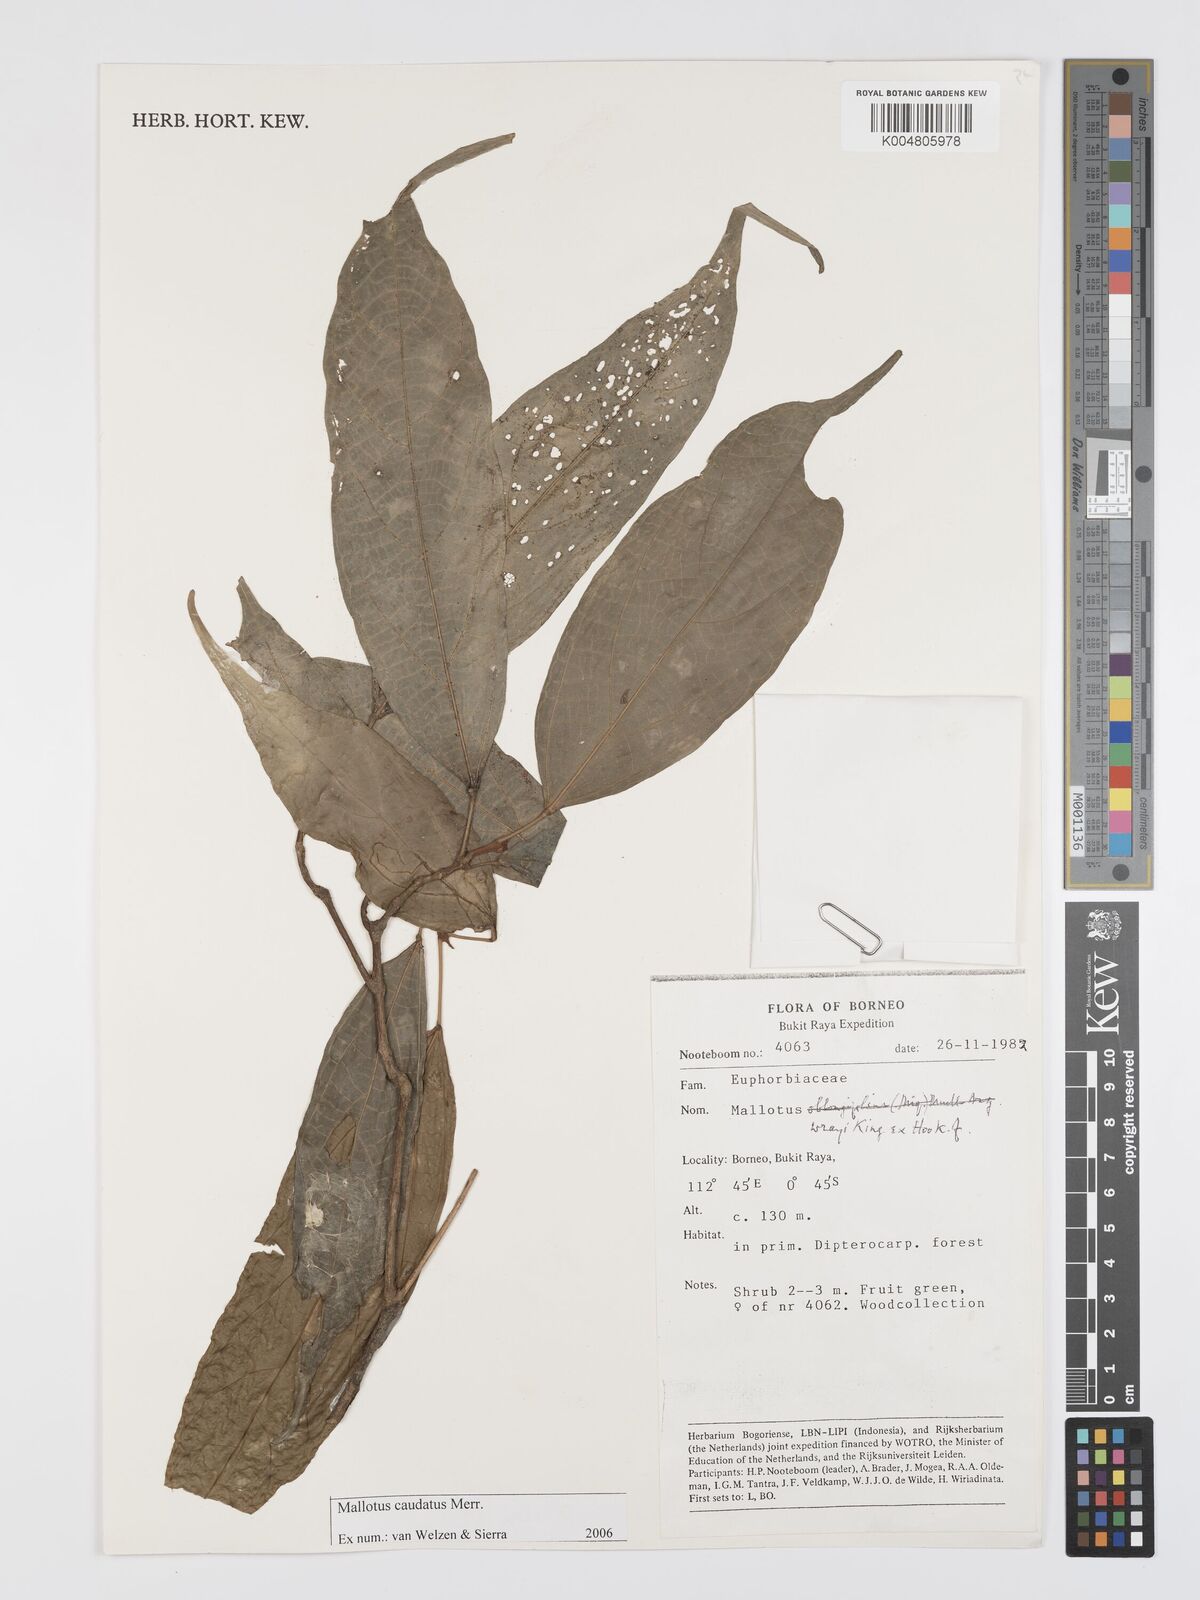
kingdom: Plantae
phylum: Tracheophyta
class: Magnoliopsida
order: Malpighiales
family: Euphorbiaceae
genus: Mallotus
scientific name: Mallotus caudatus
